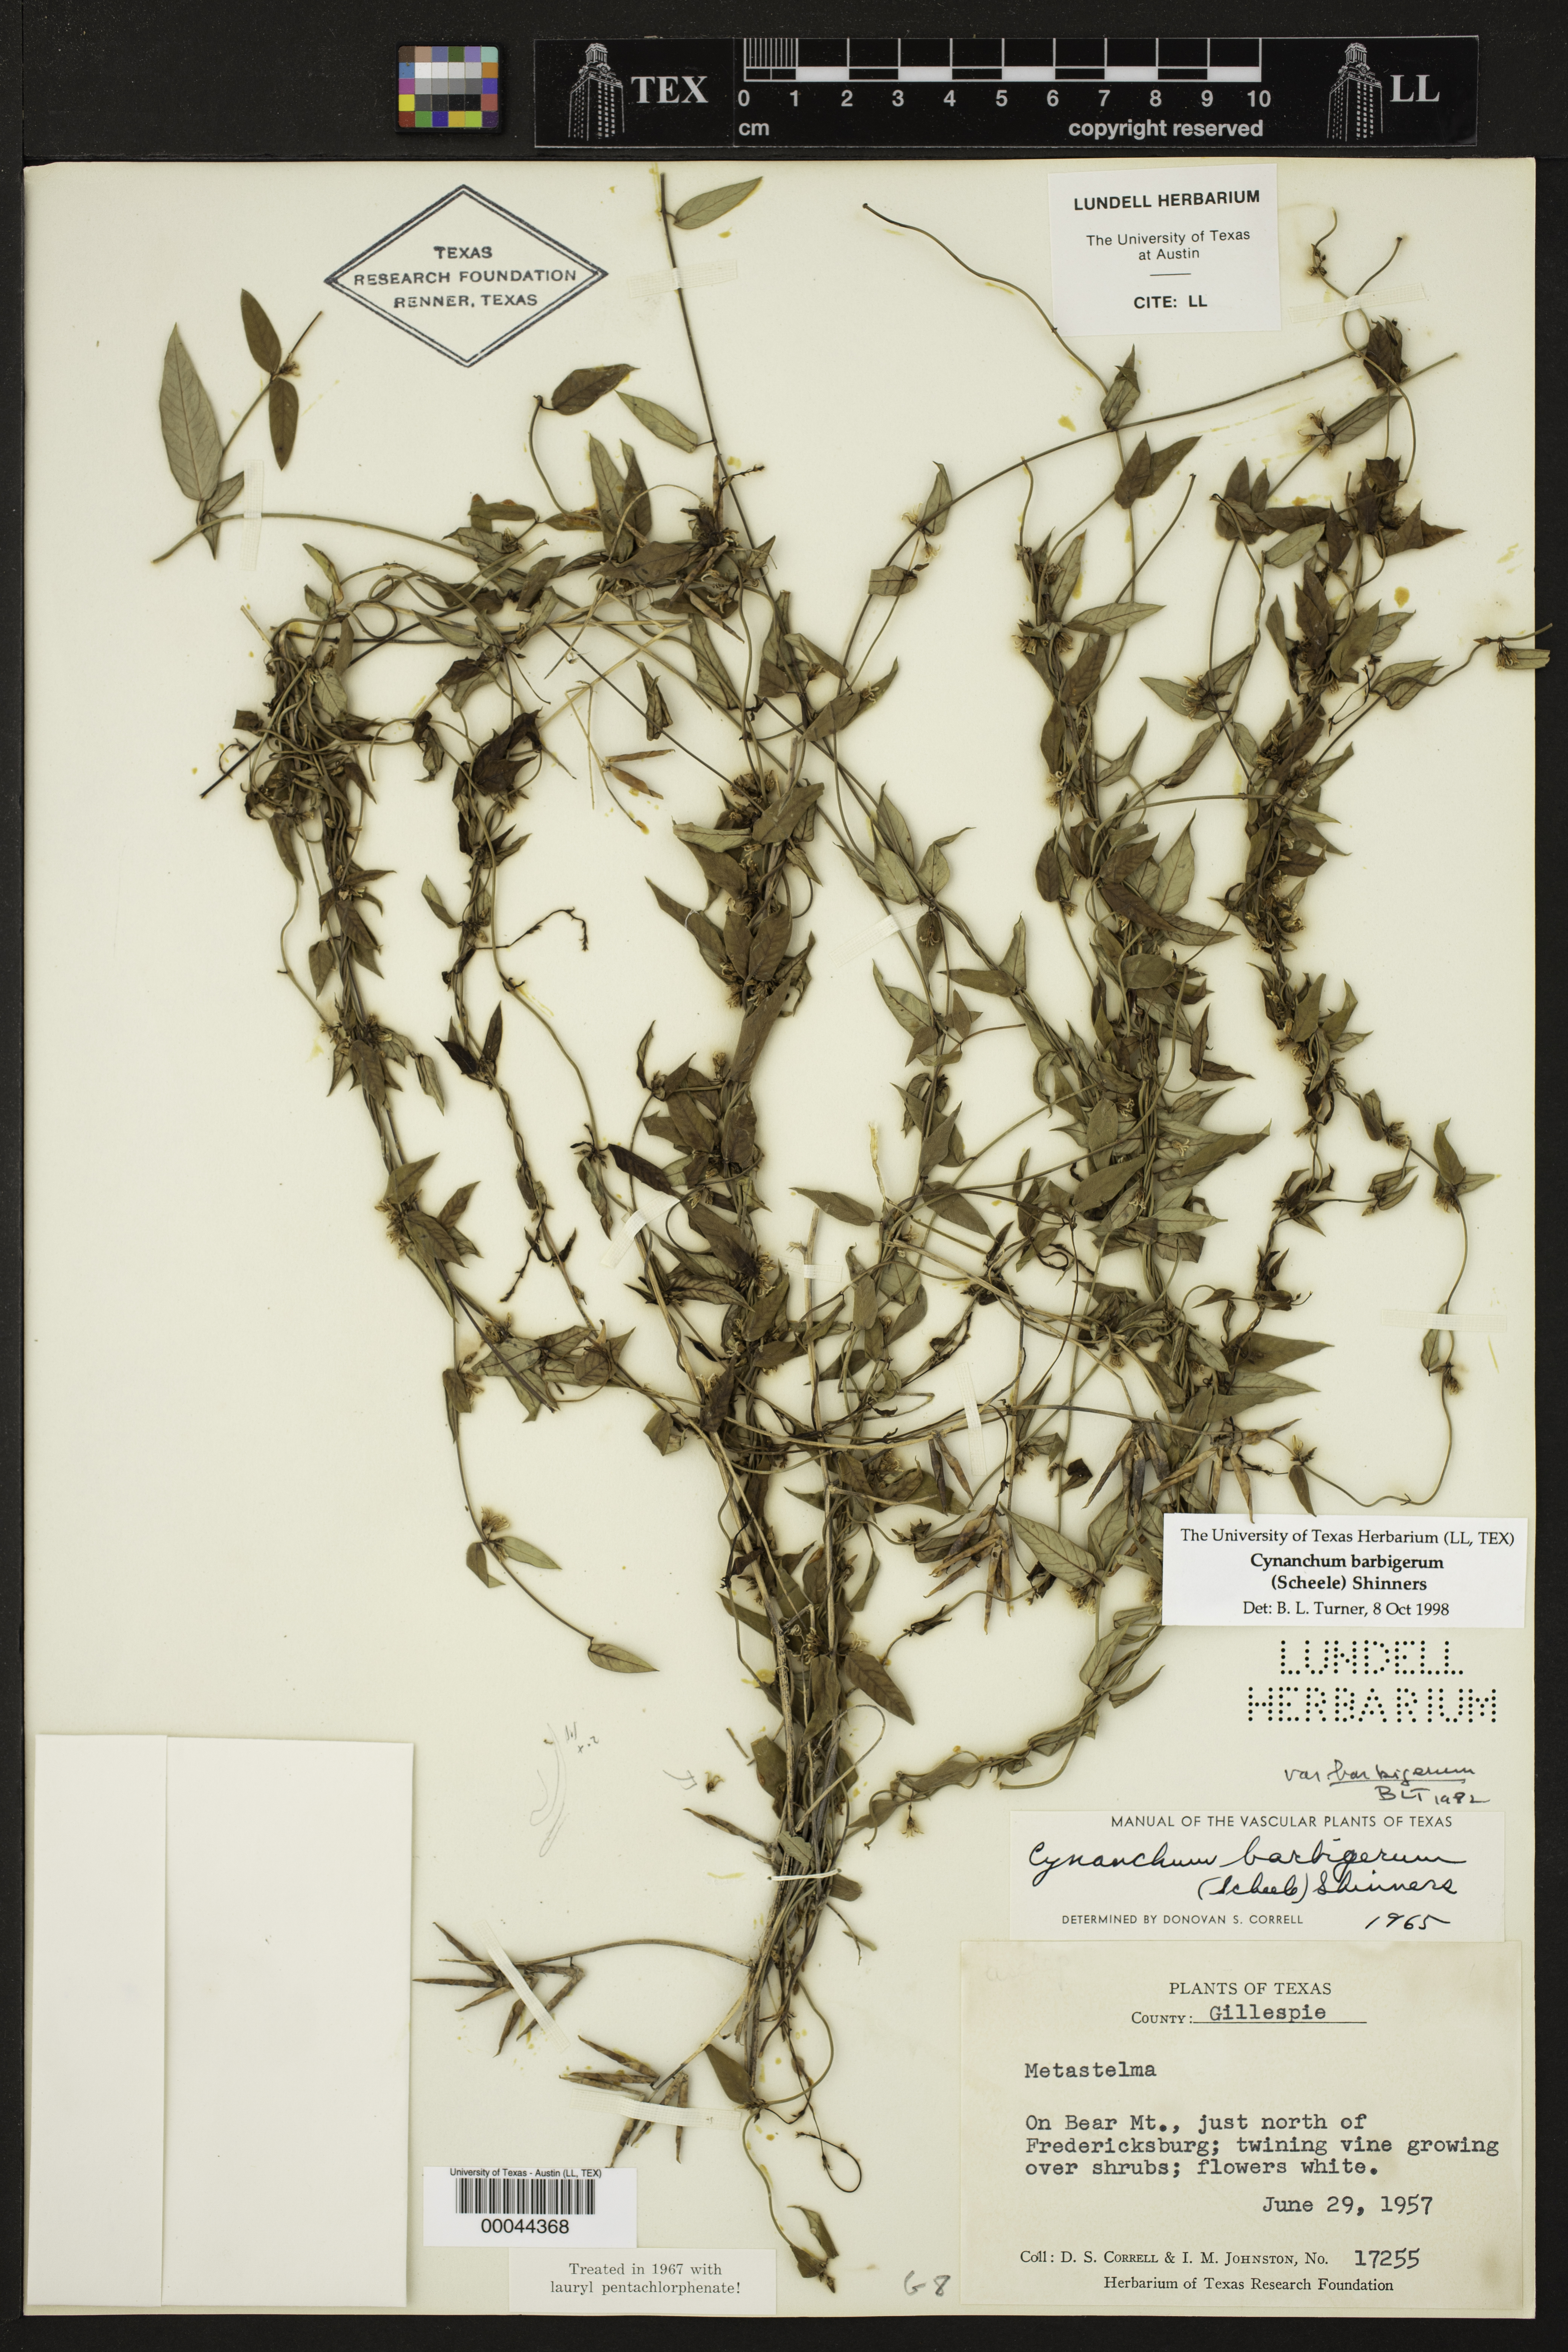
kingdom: Plantae
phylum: Tracheophyta
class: Magnoliopsida
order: Gentianales
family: Apocynaceae
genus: Metastelma
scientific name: Metastelma barbigerum
